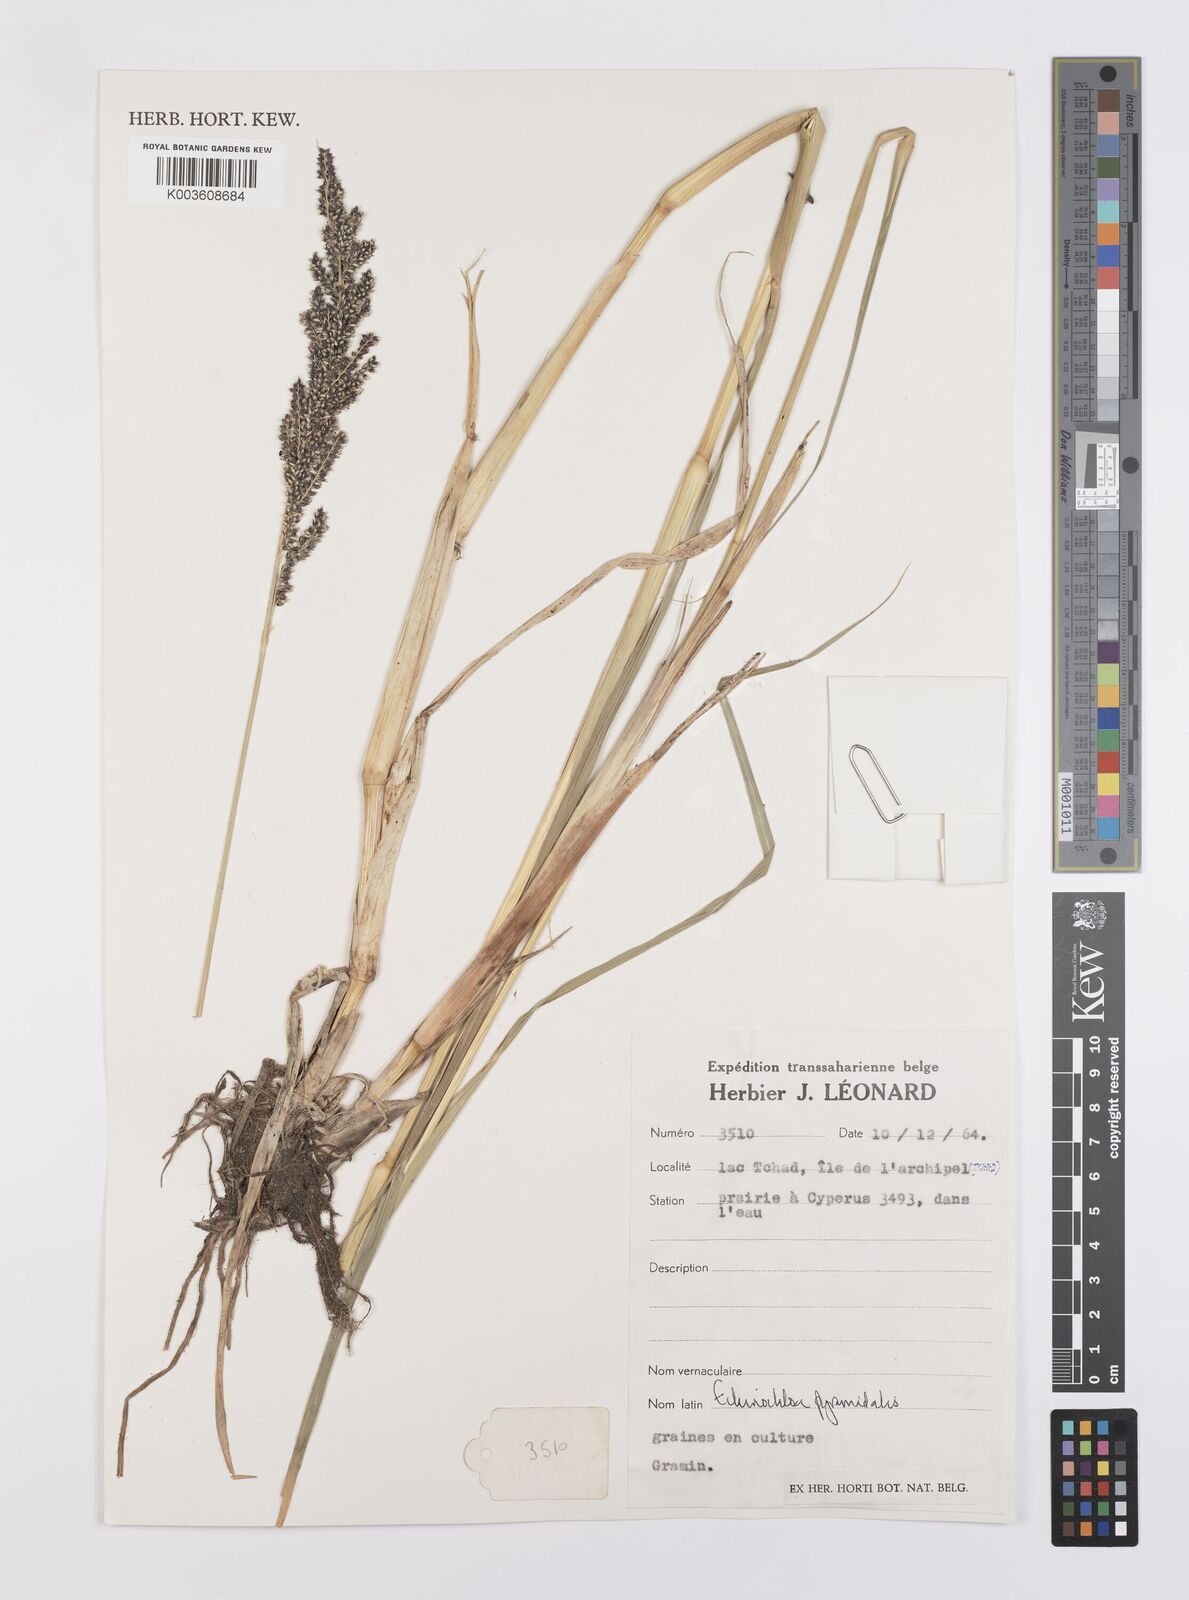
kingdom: Plantae
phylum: Tracheophyta
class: Liliopsida
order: Poales
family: Poaceae
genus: Echinochloa
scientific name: Echinochloa pyramidalis
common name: Antelope grass
